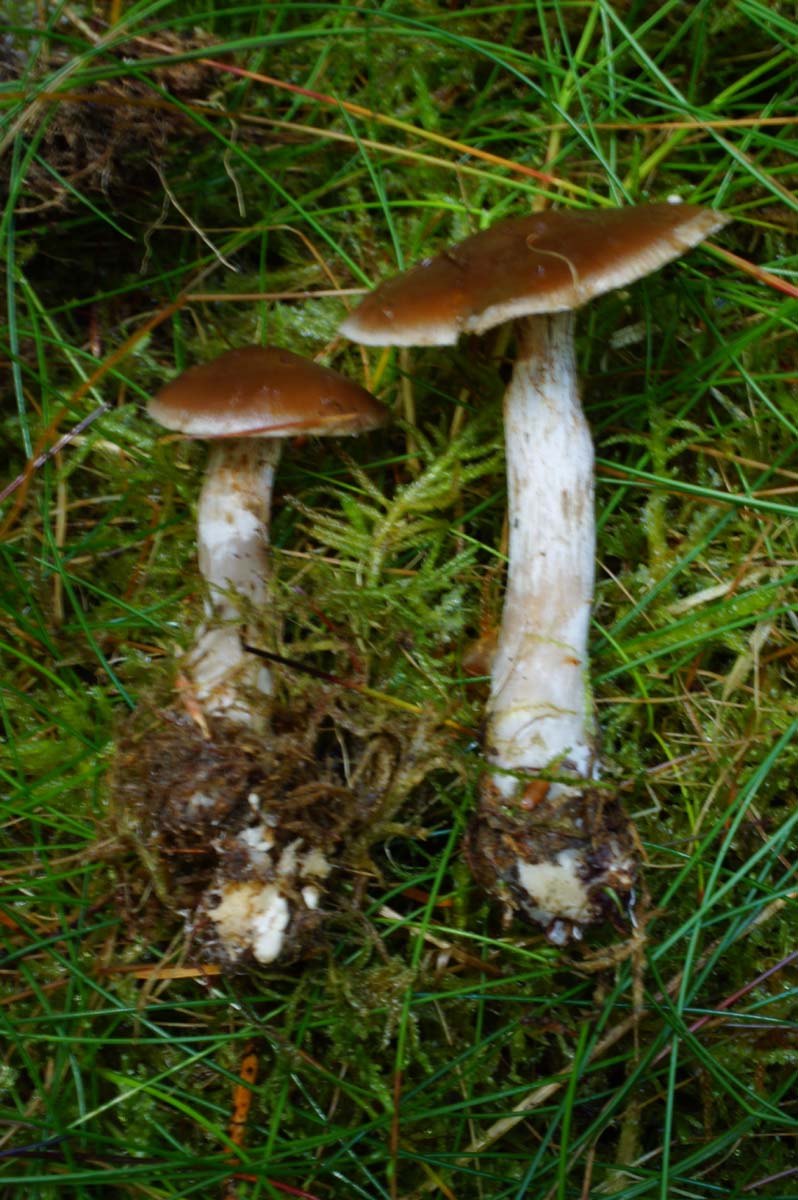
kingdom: Fungi
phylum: Basidiomycota
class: Agaricomycetes
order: Agaricales
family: Cortinariaceae
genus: Cortinarius
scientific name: Cortinarius kauffmanianus
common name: plantage-slørhat
